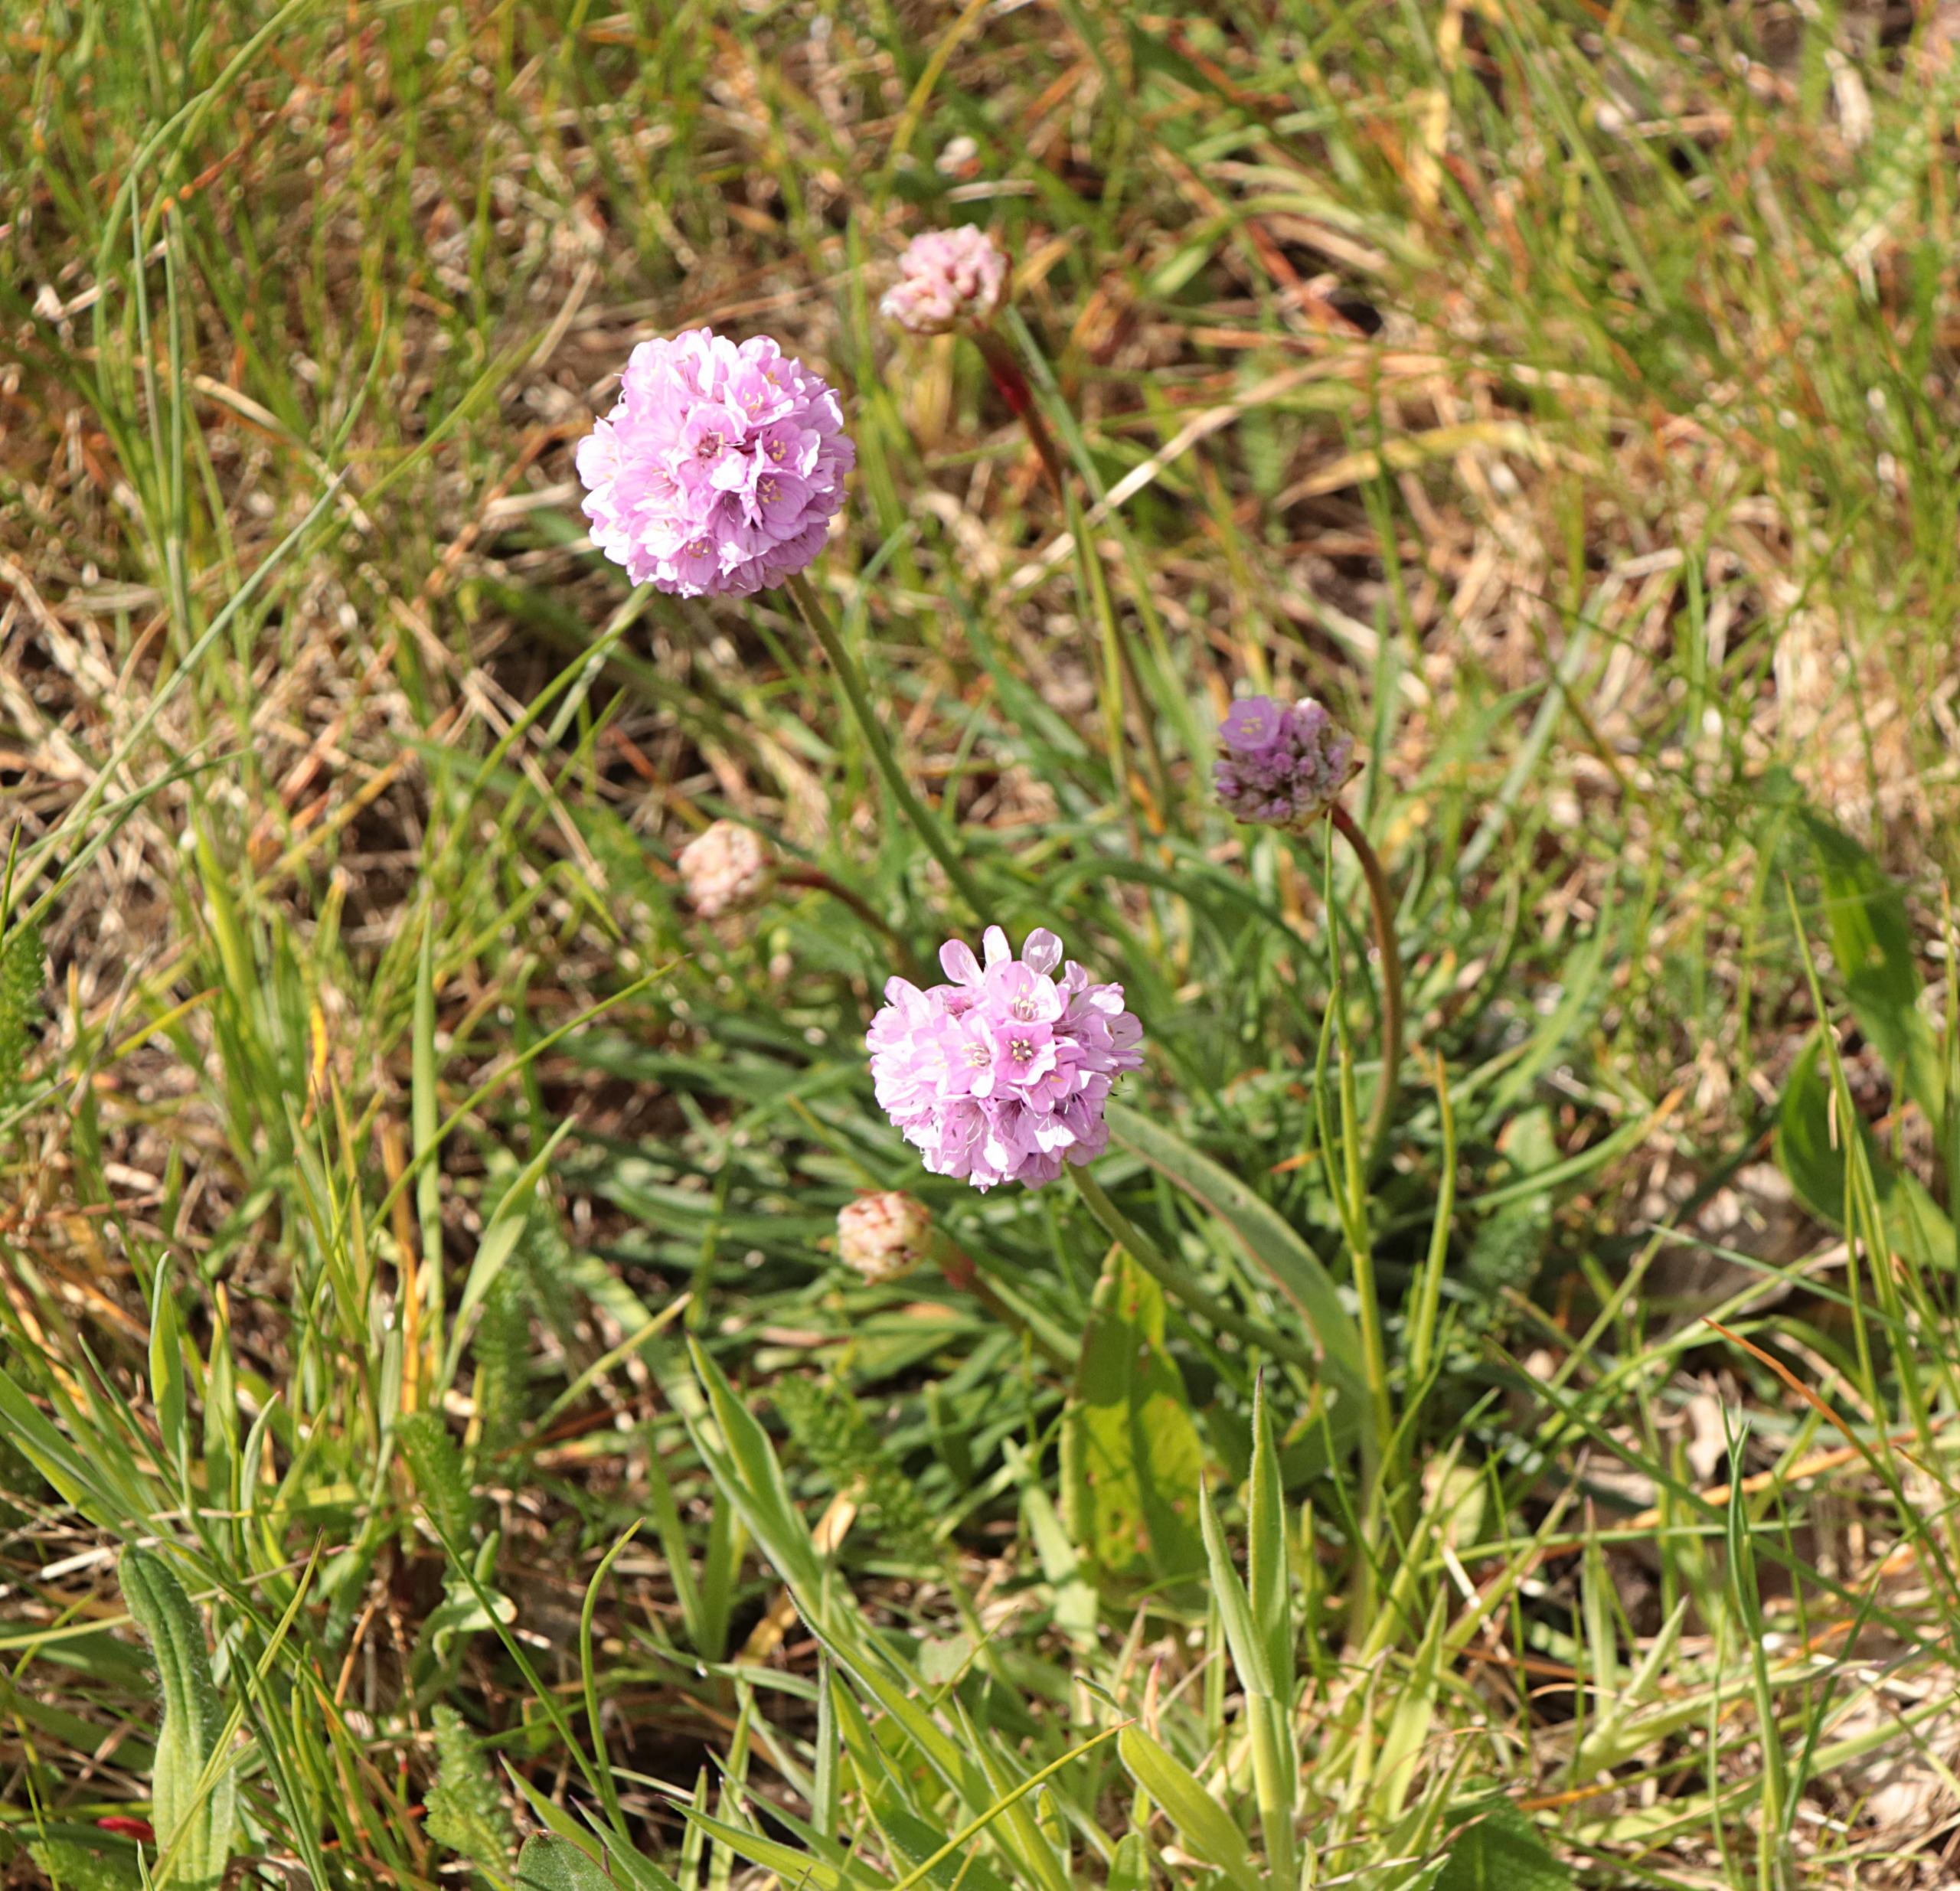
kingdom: Plantae
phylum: Tracheophyta
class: Magnoliopsida
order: Caryophyllales
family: Plumbaginaceae
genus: Armeria
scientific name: Armeria maritima
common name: Engelskgræs
